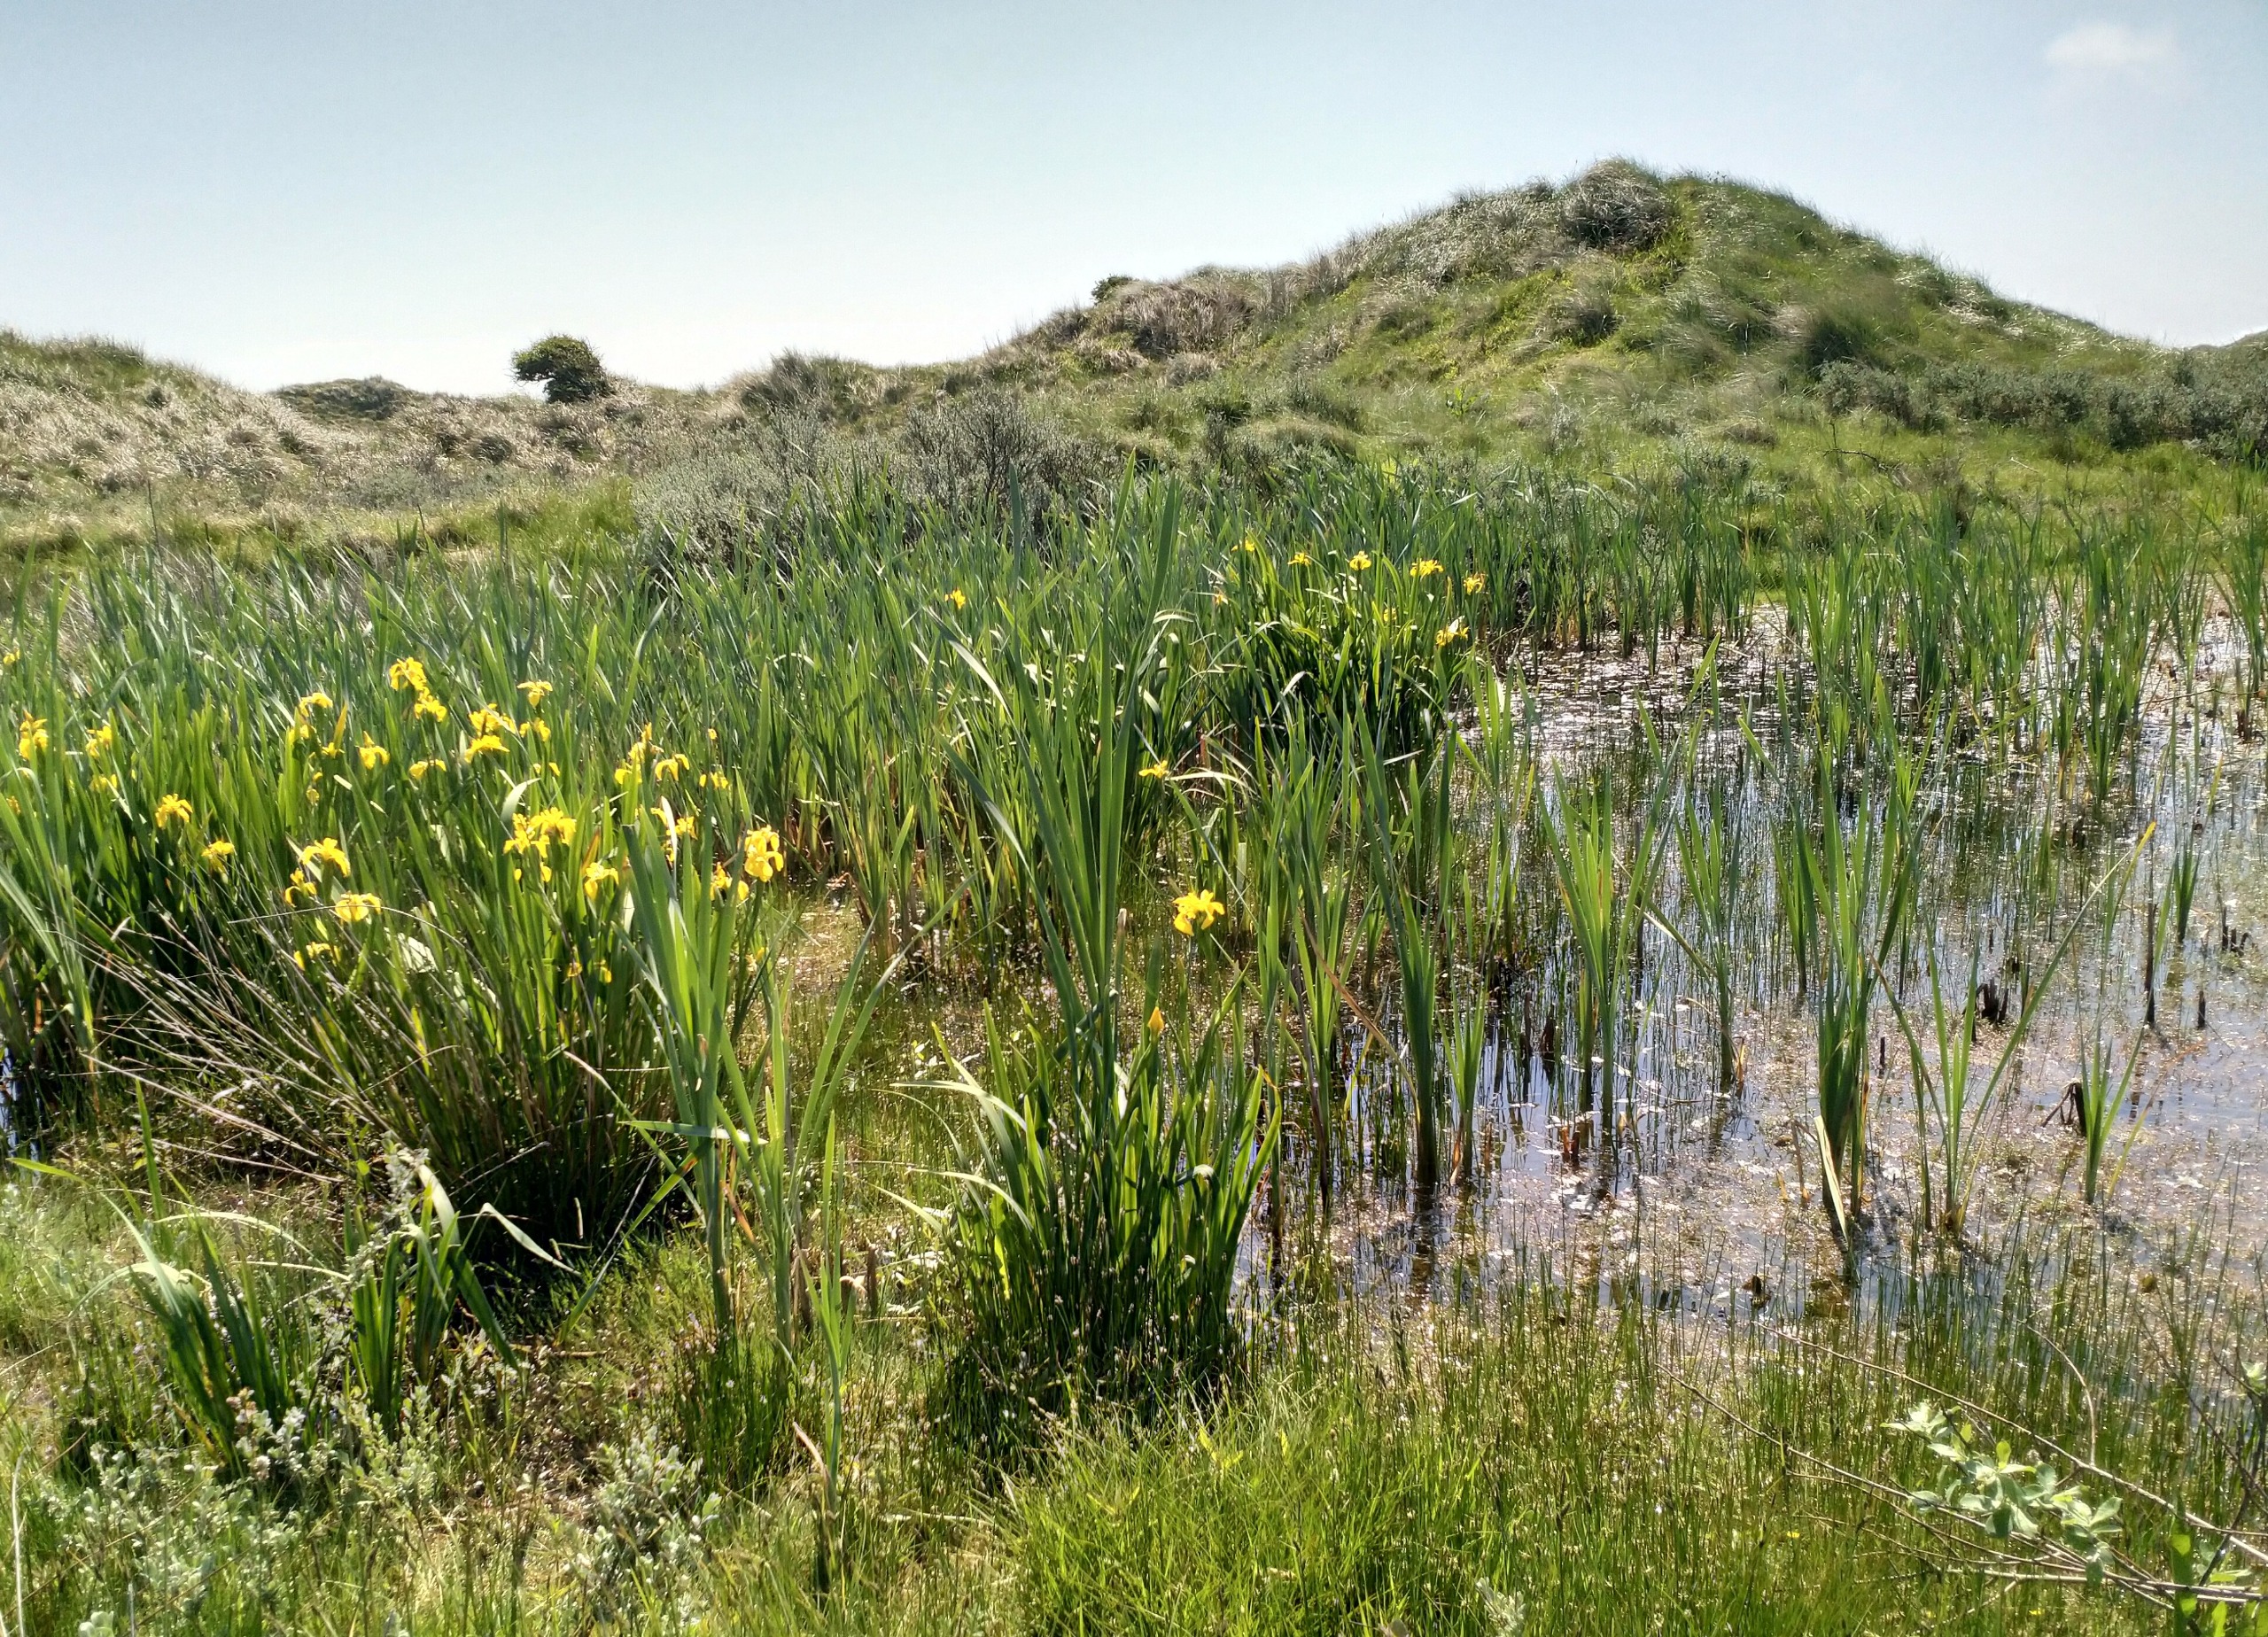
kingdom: Plantae
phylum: Tracheophyta
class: Liliopsida
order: Asparagales
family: Iridaceae
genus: Iris
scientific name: Iris pseudacorus
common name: Gul iris
